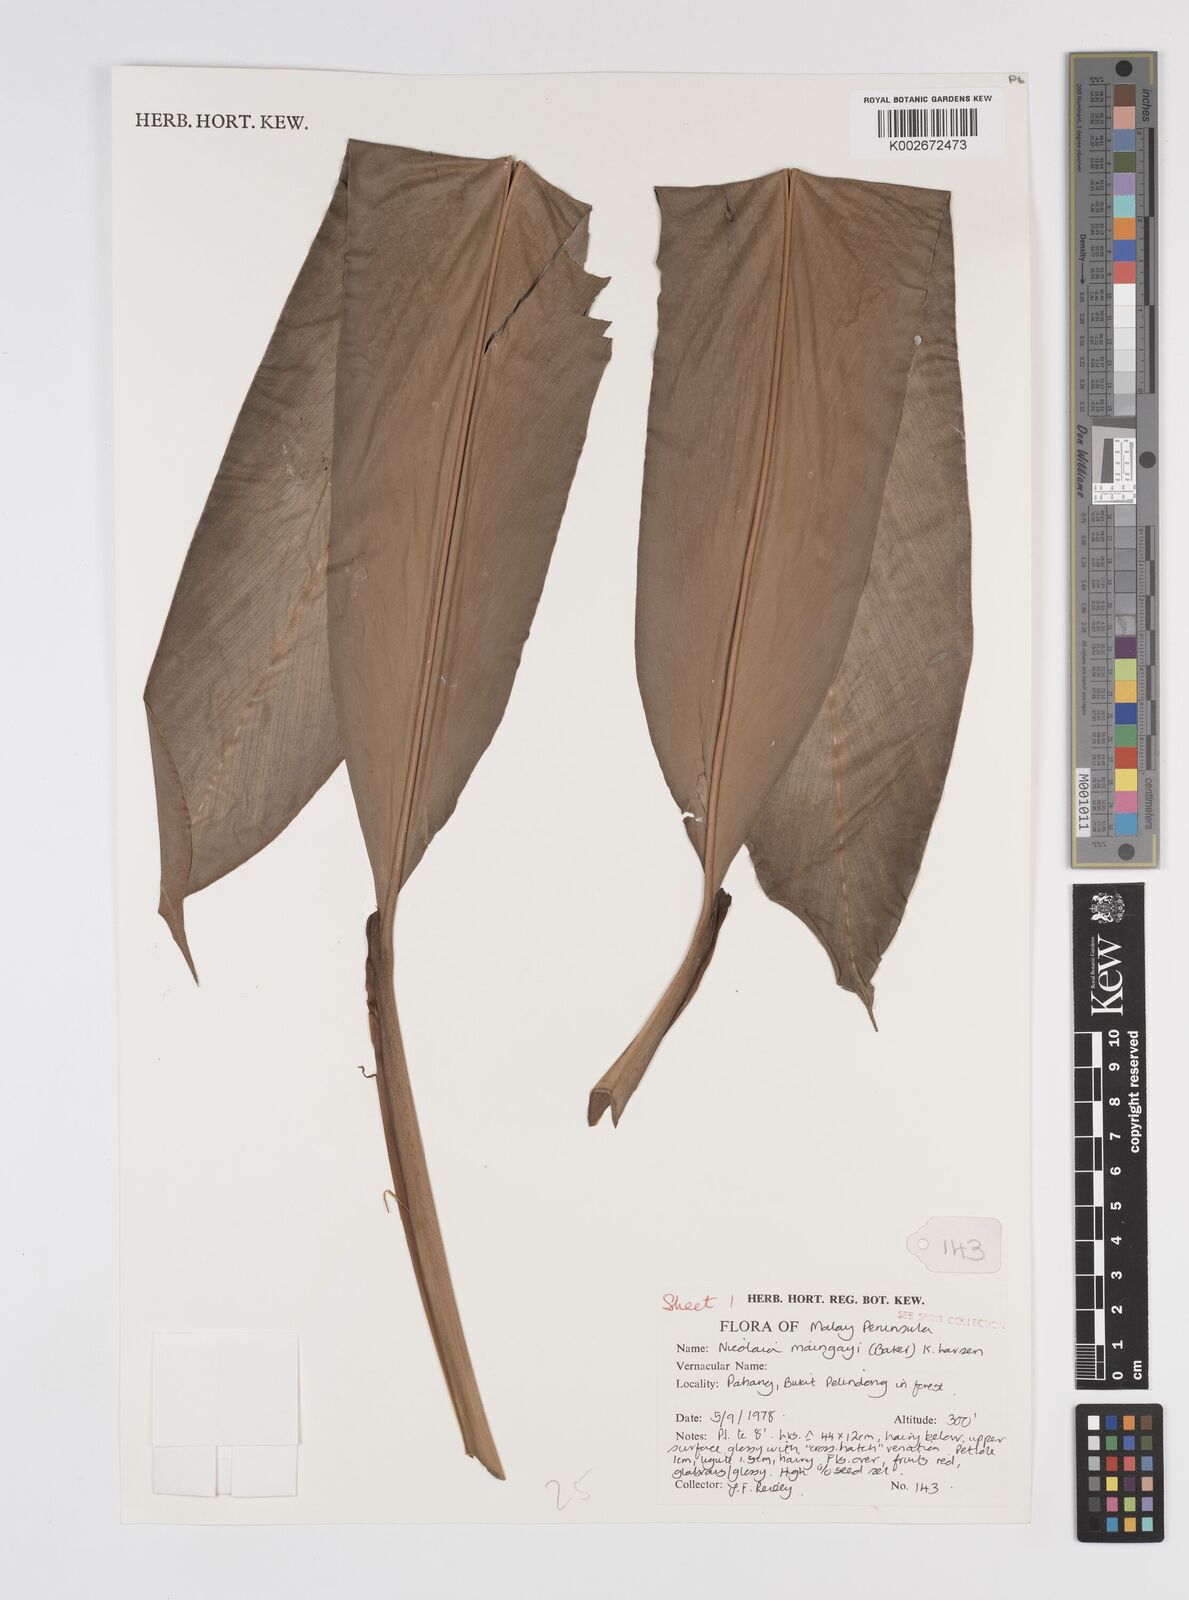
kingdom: Plantae
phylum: Tracheophyta
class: Liliopsida
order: Zingiberales
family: Zingiberaceae
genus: Etlingera
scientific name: Etlingera maingayi
